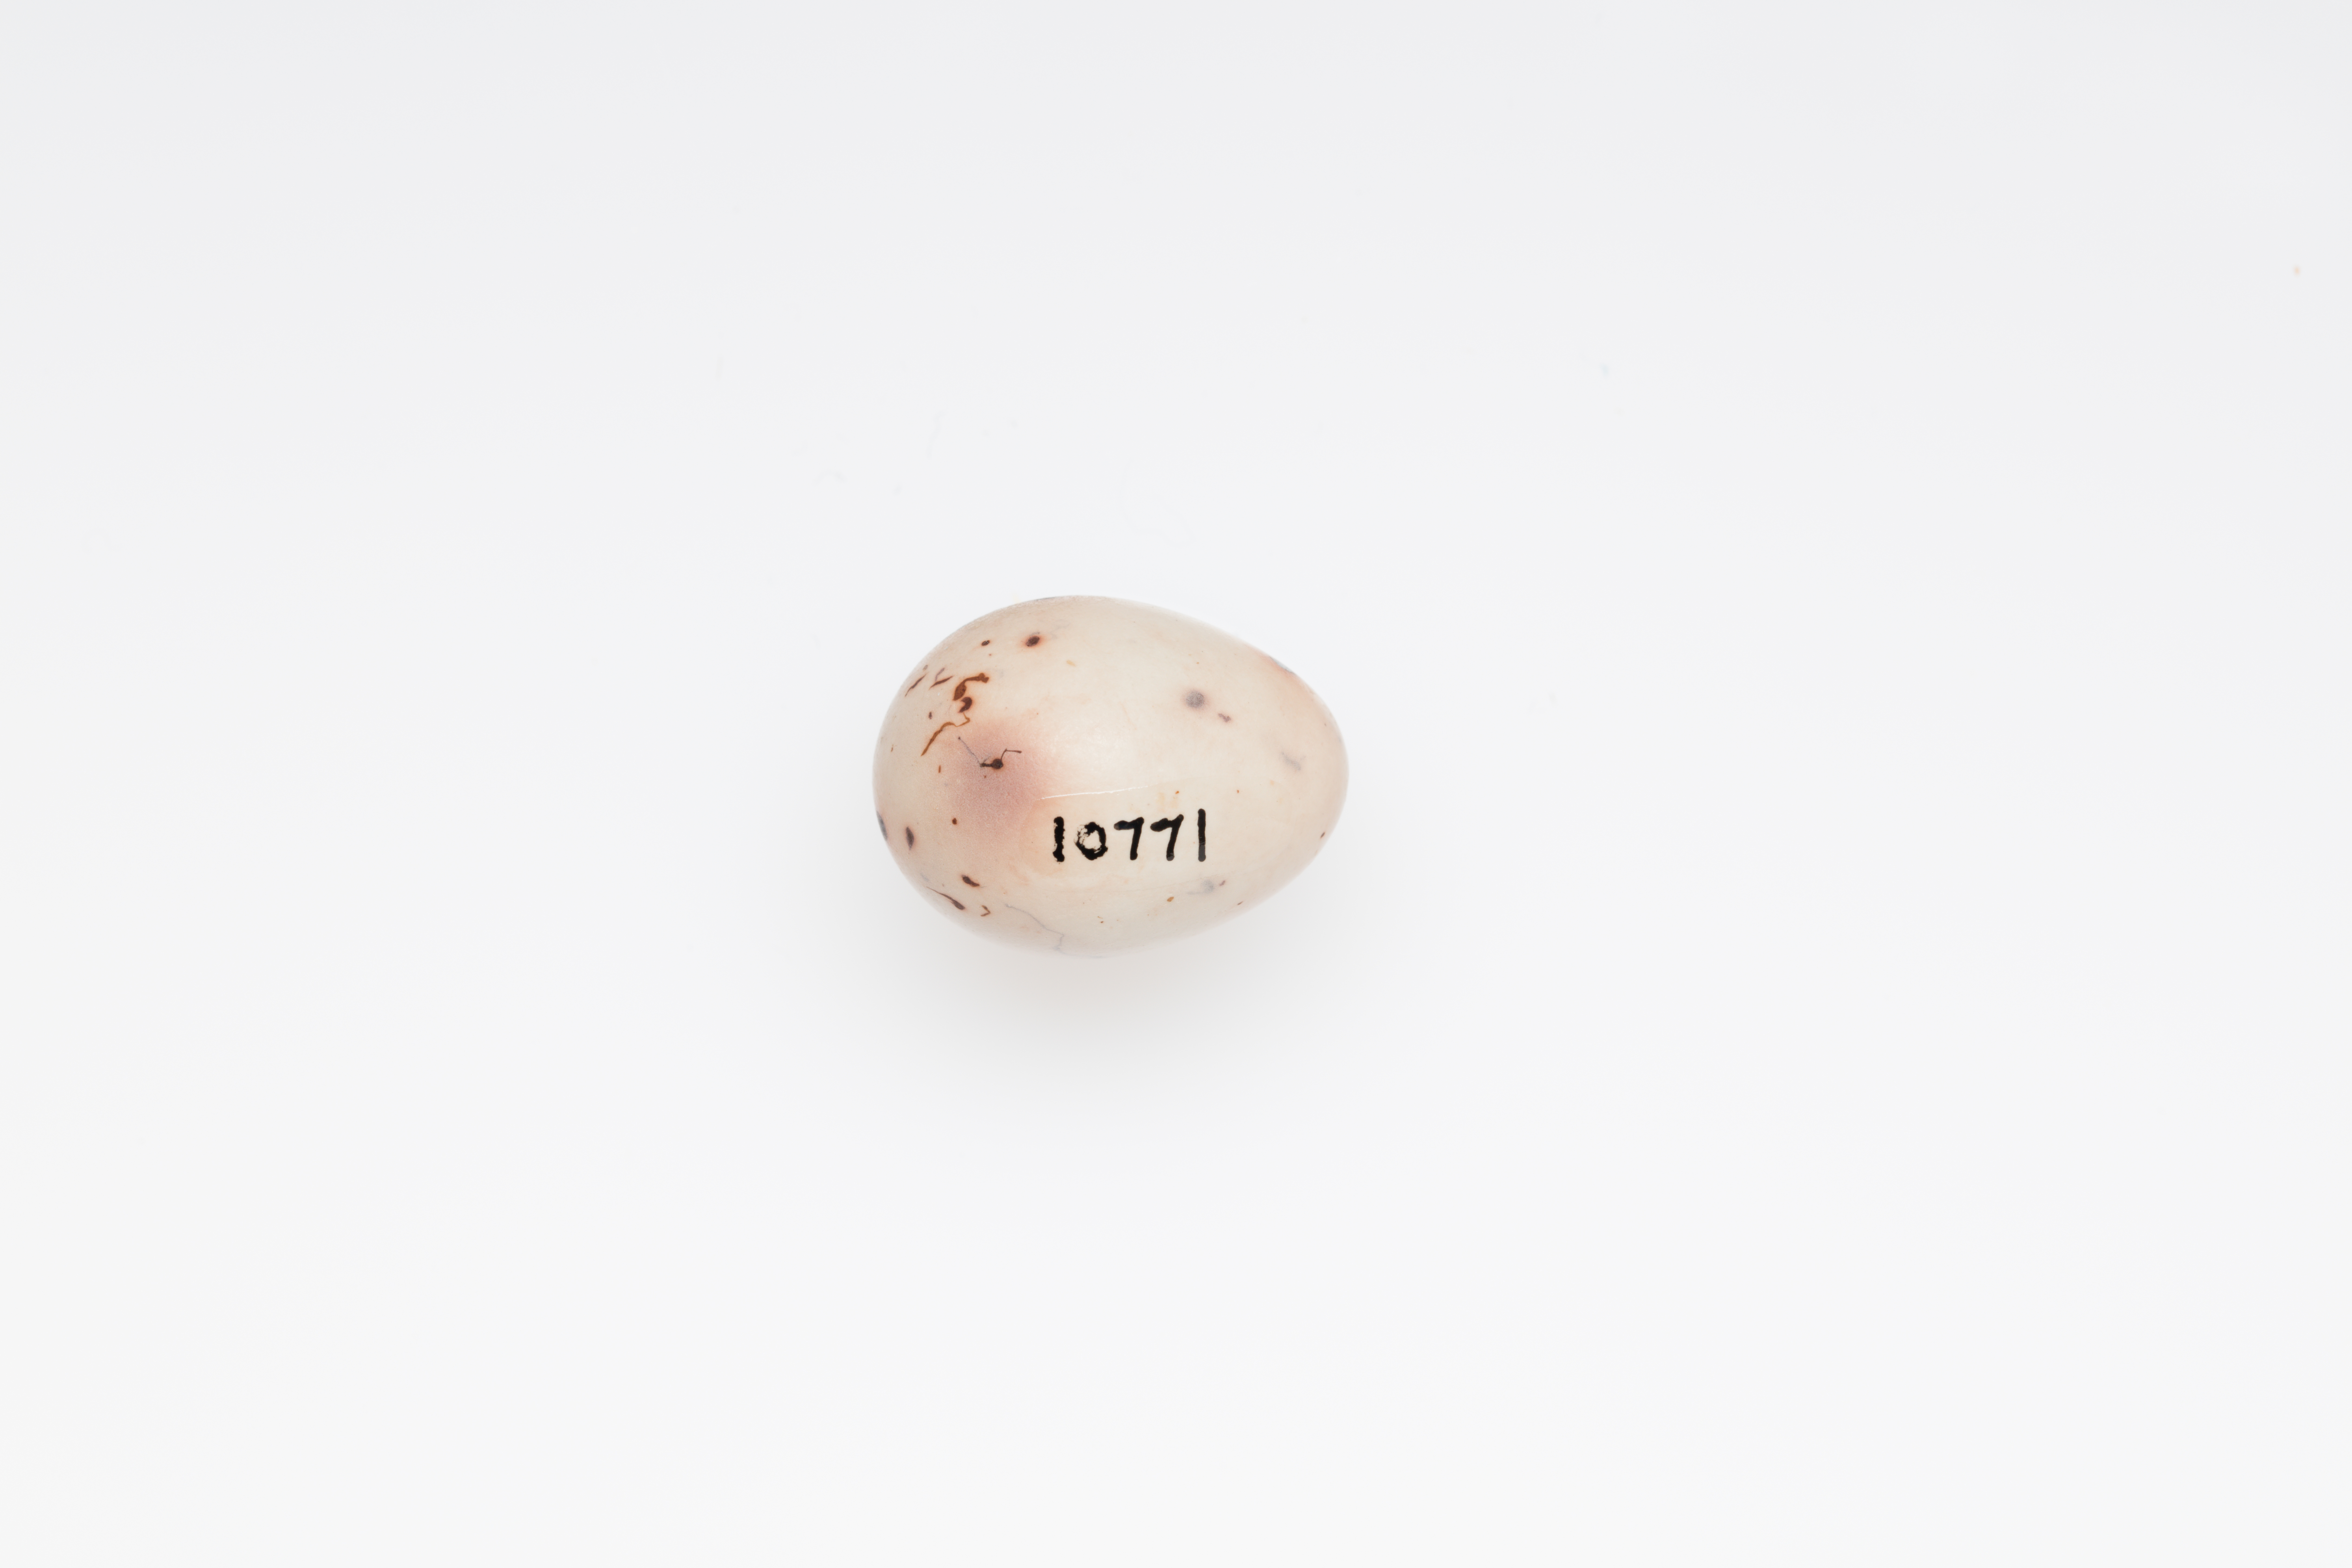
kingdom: Animalia
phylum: Chordata
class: Aves
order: Passeriformes
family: Fringillidae
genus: Fringilla
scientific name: Fringilla coelebs
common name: Common chaffinch
